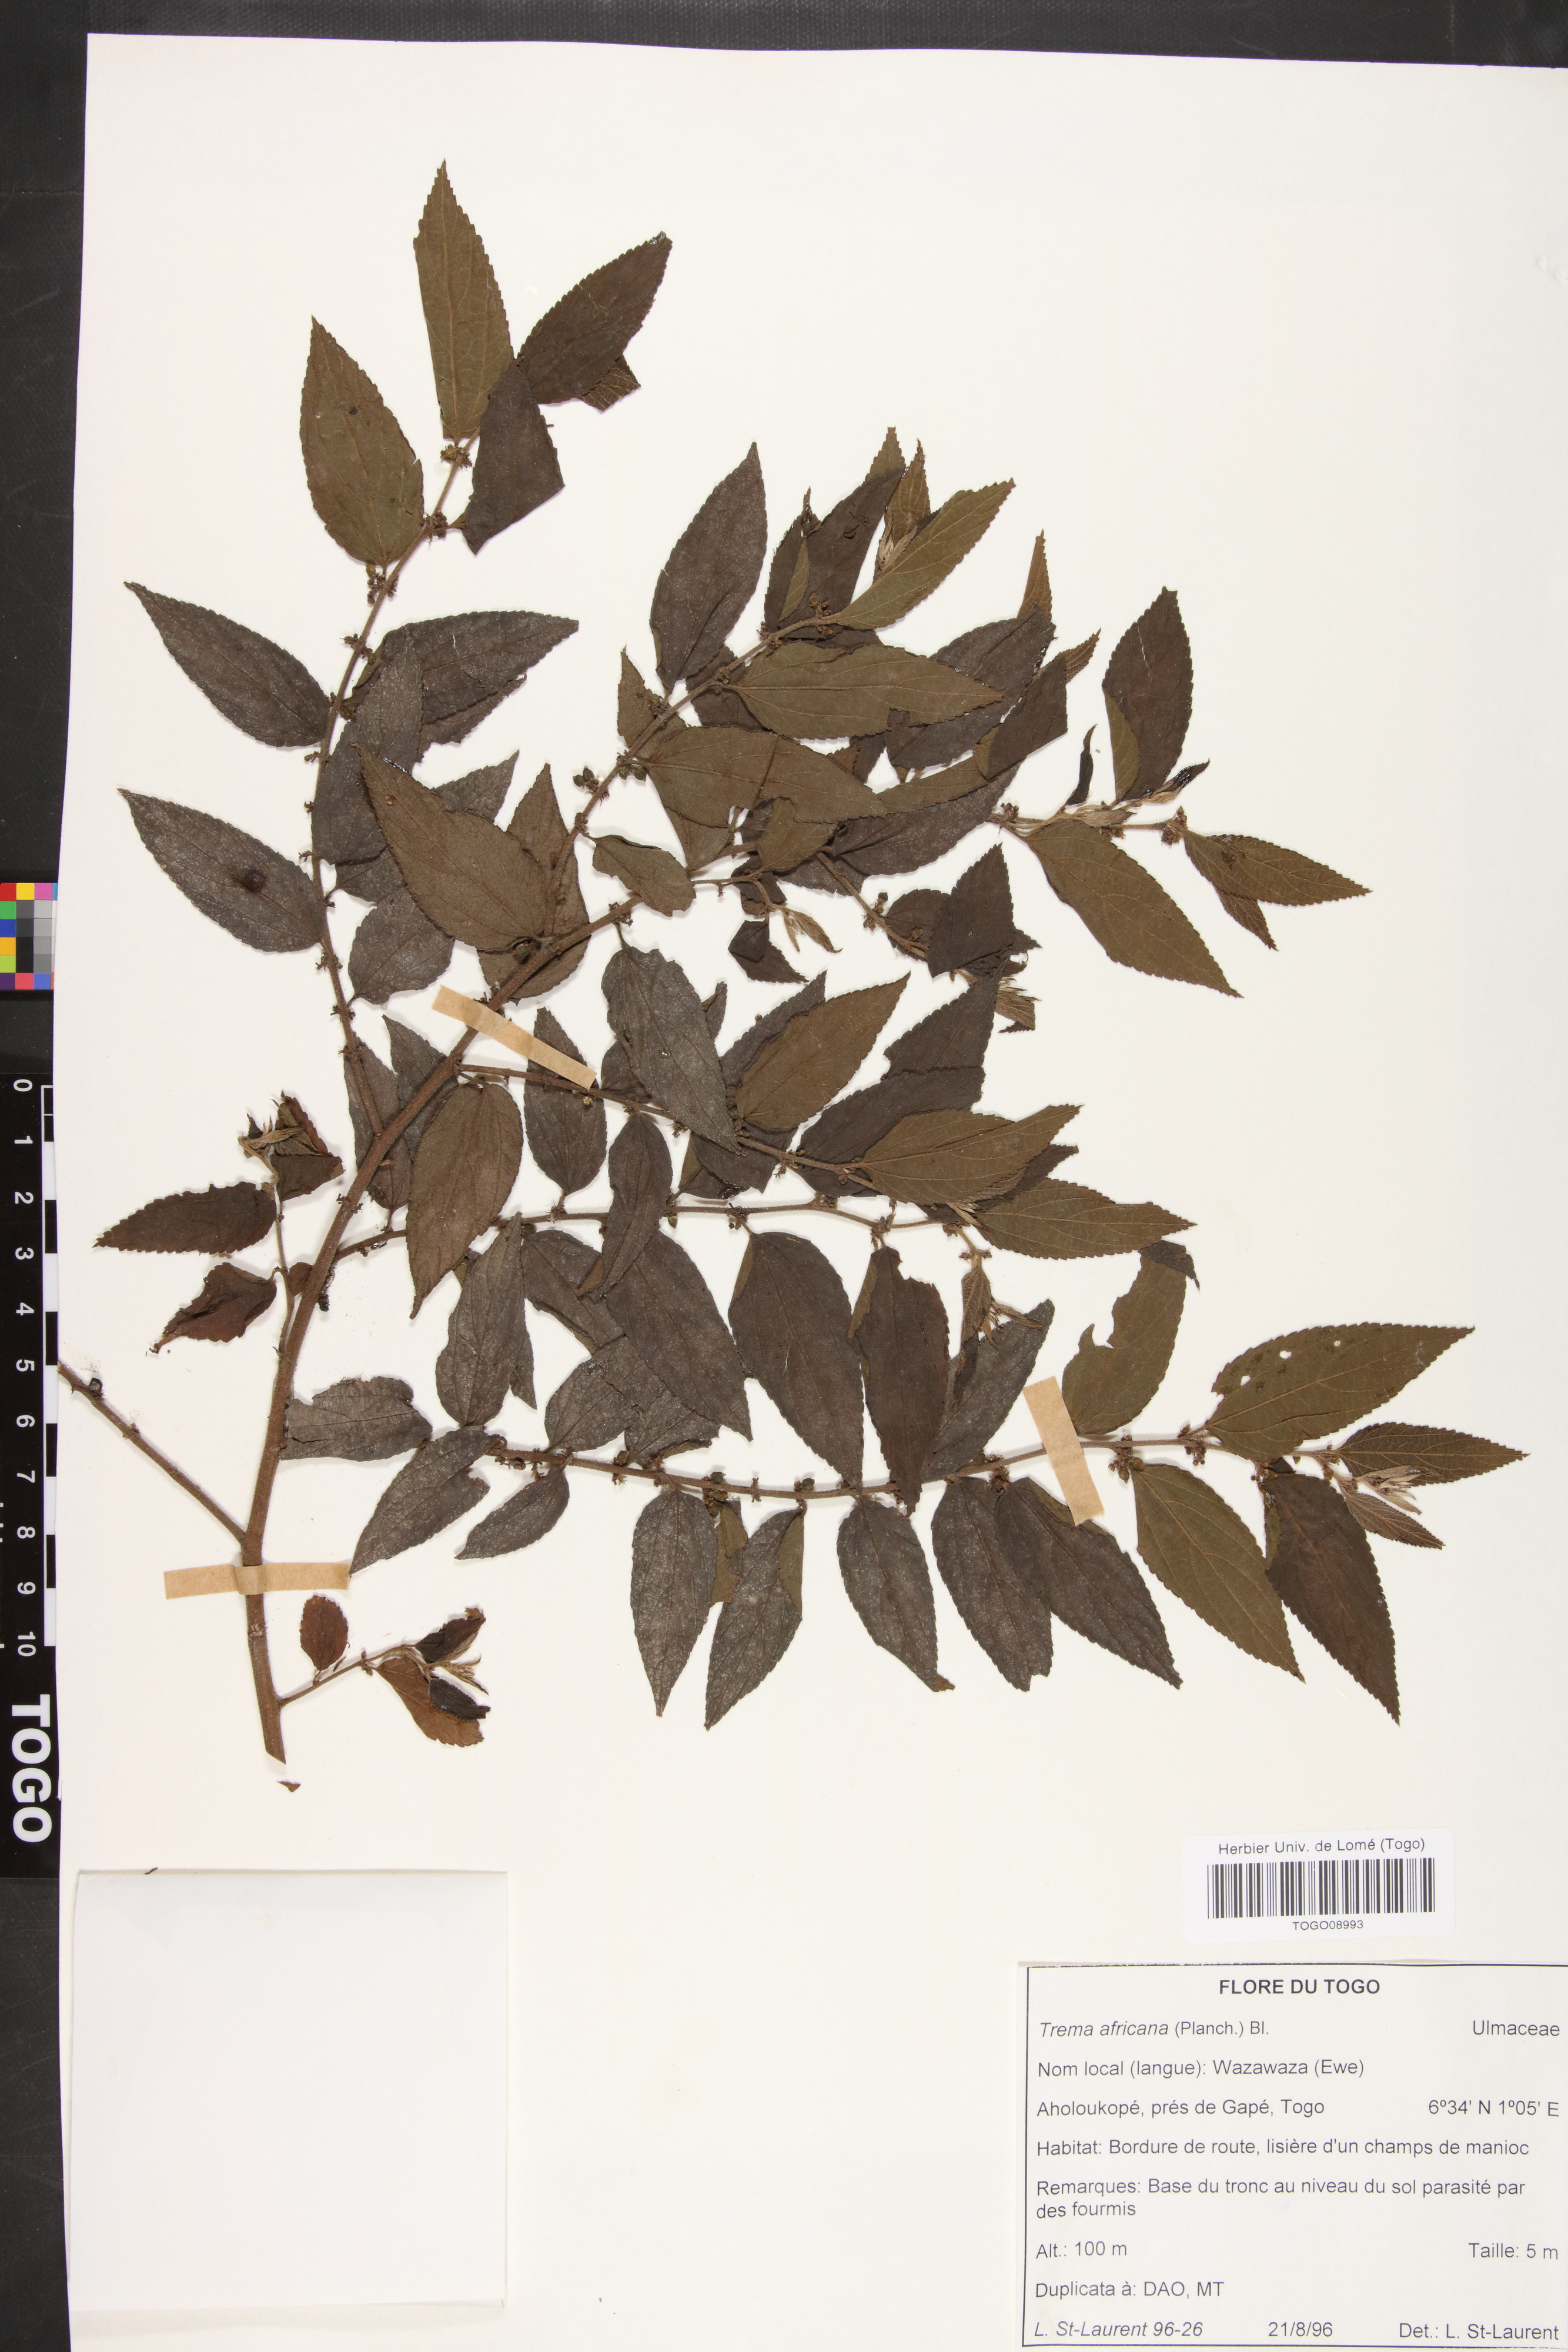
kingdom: Plantae
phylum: Tracheophyta
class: Magnoliopsida
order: Rosales
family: Cannabaceae
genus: Trema
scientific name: Trema orientale
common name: Indian charcoal tree
